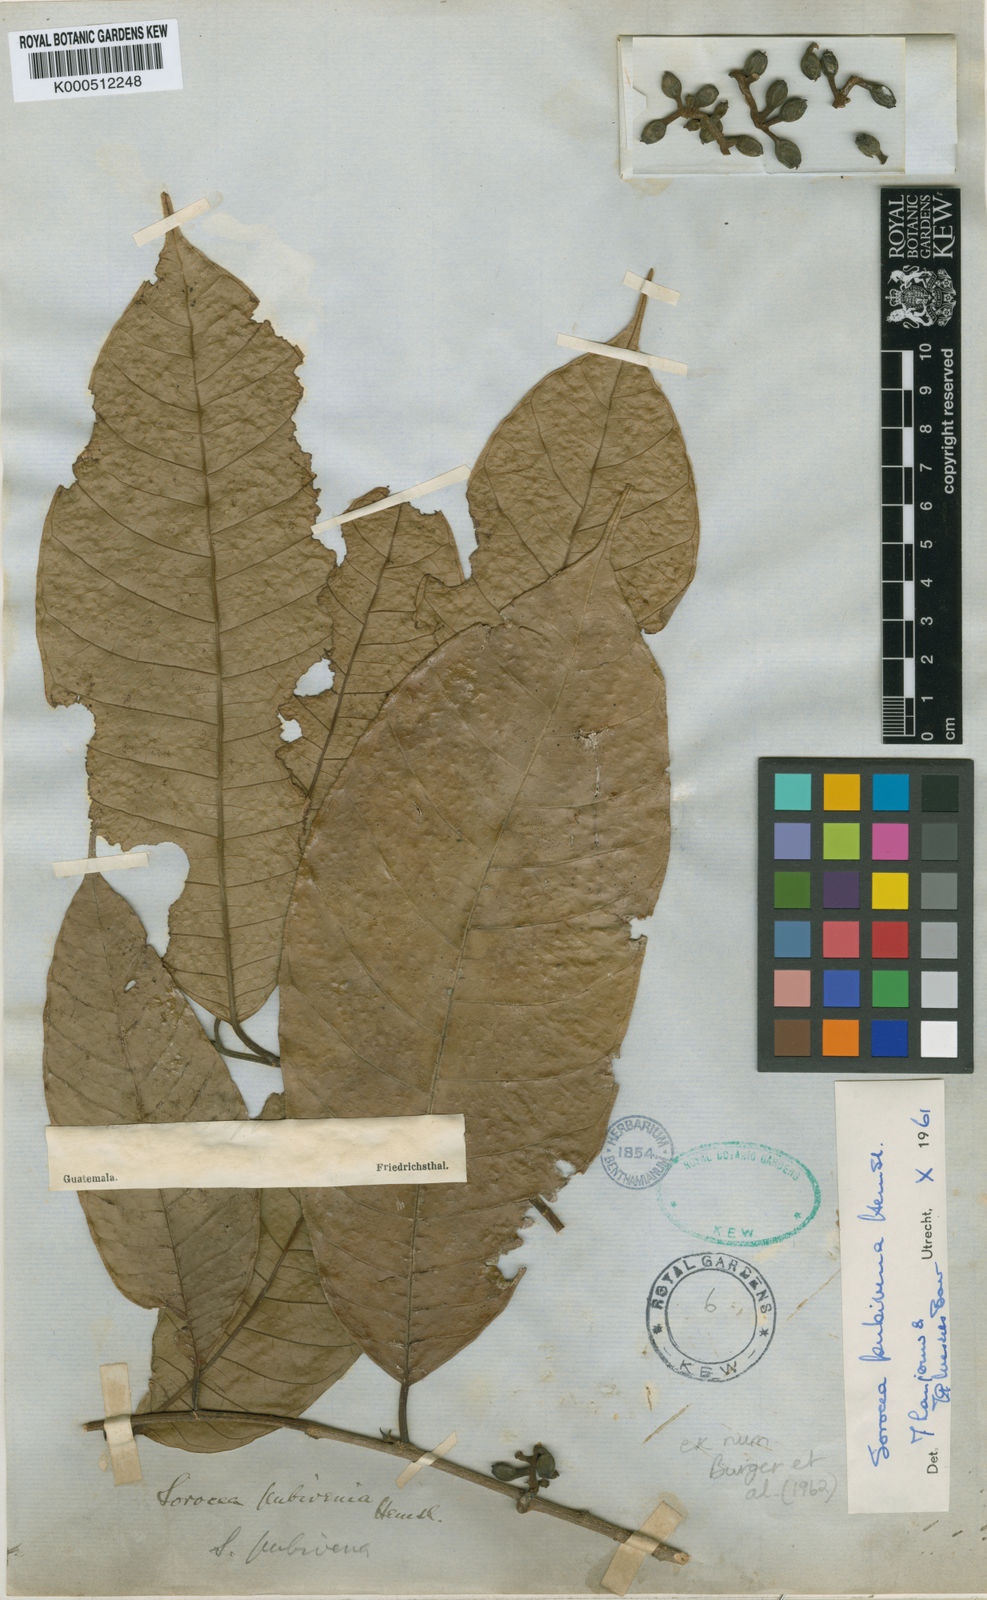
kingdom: Plantae
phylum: Tracheophyta
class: Magnoliopsida
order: Rosales
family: Moraceae
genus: Sorocea
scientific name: Sorocea pubivena
